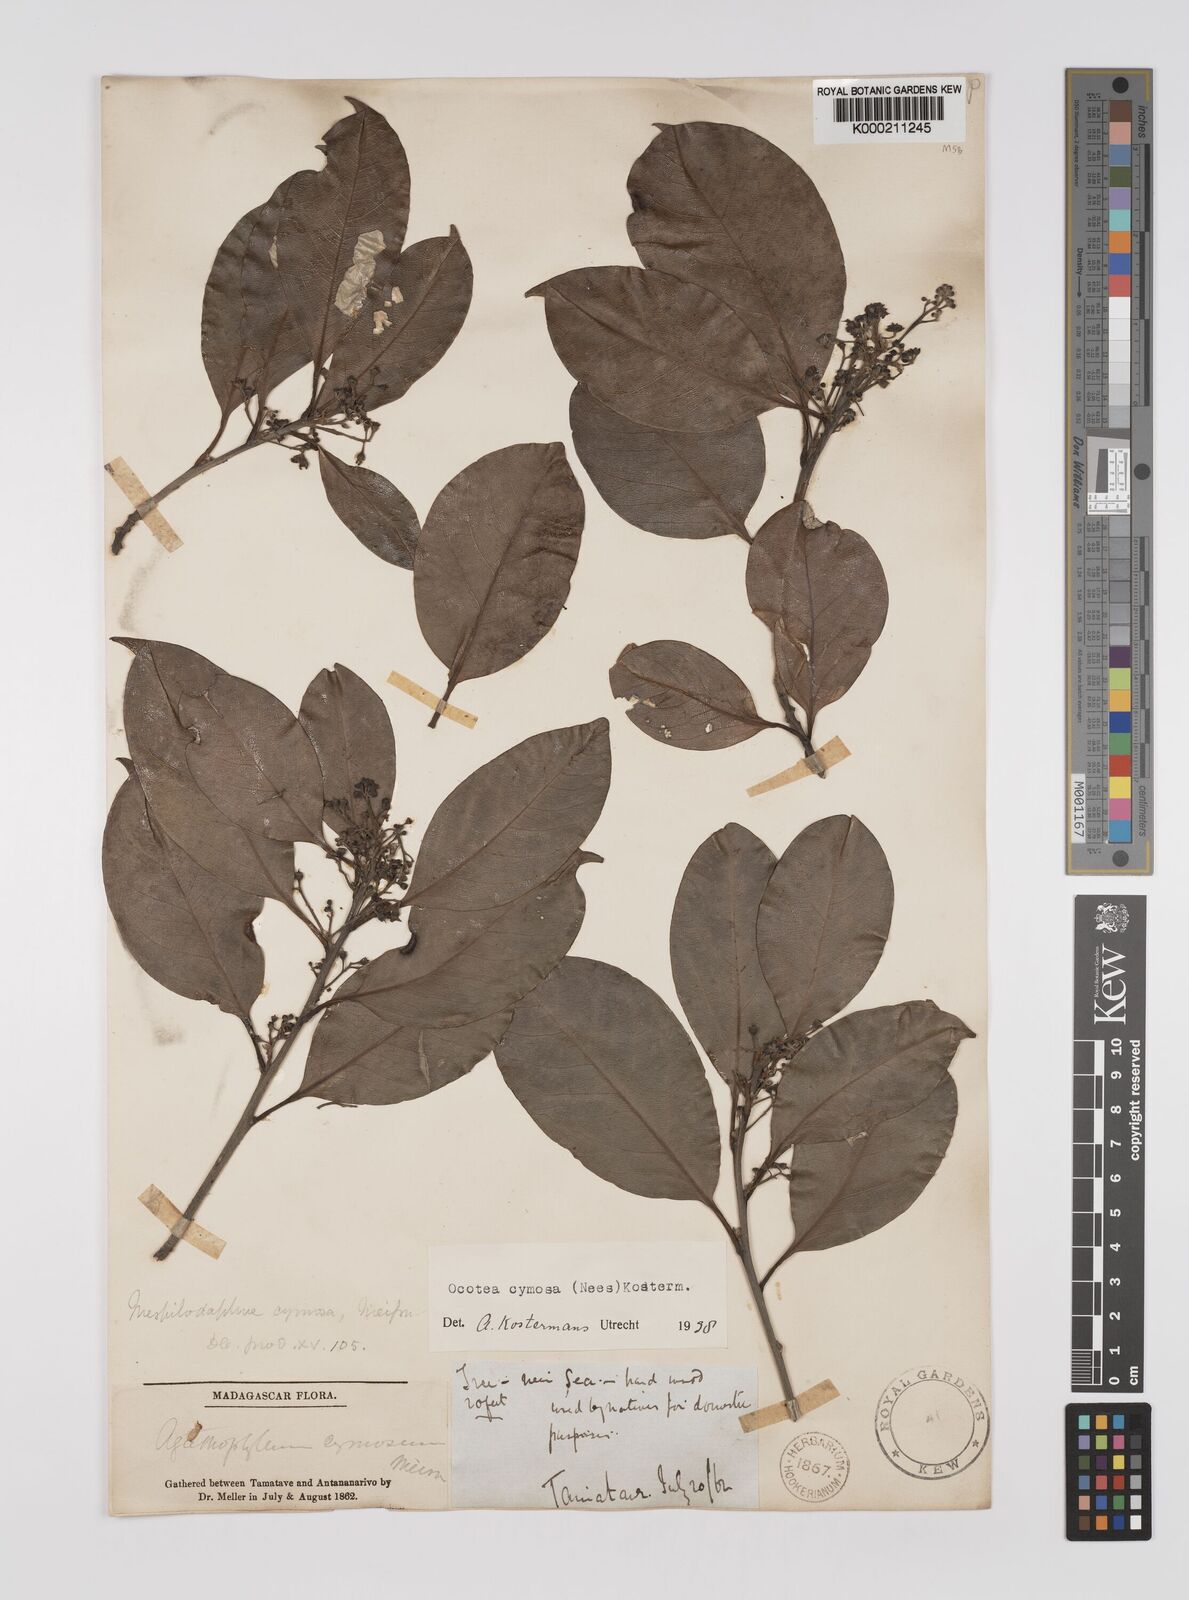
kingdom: Plantae
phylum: Tracheophyta
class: Magnoliopsida
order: Laurales
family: Lauraceae
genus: Mespilodaphne
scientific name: Mespilodaphne cymosa
